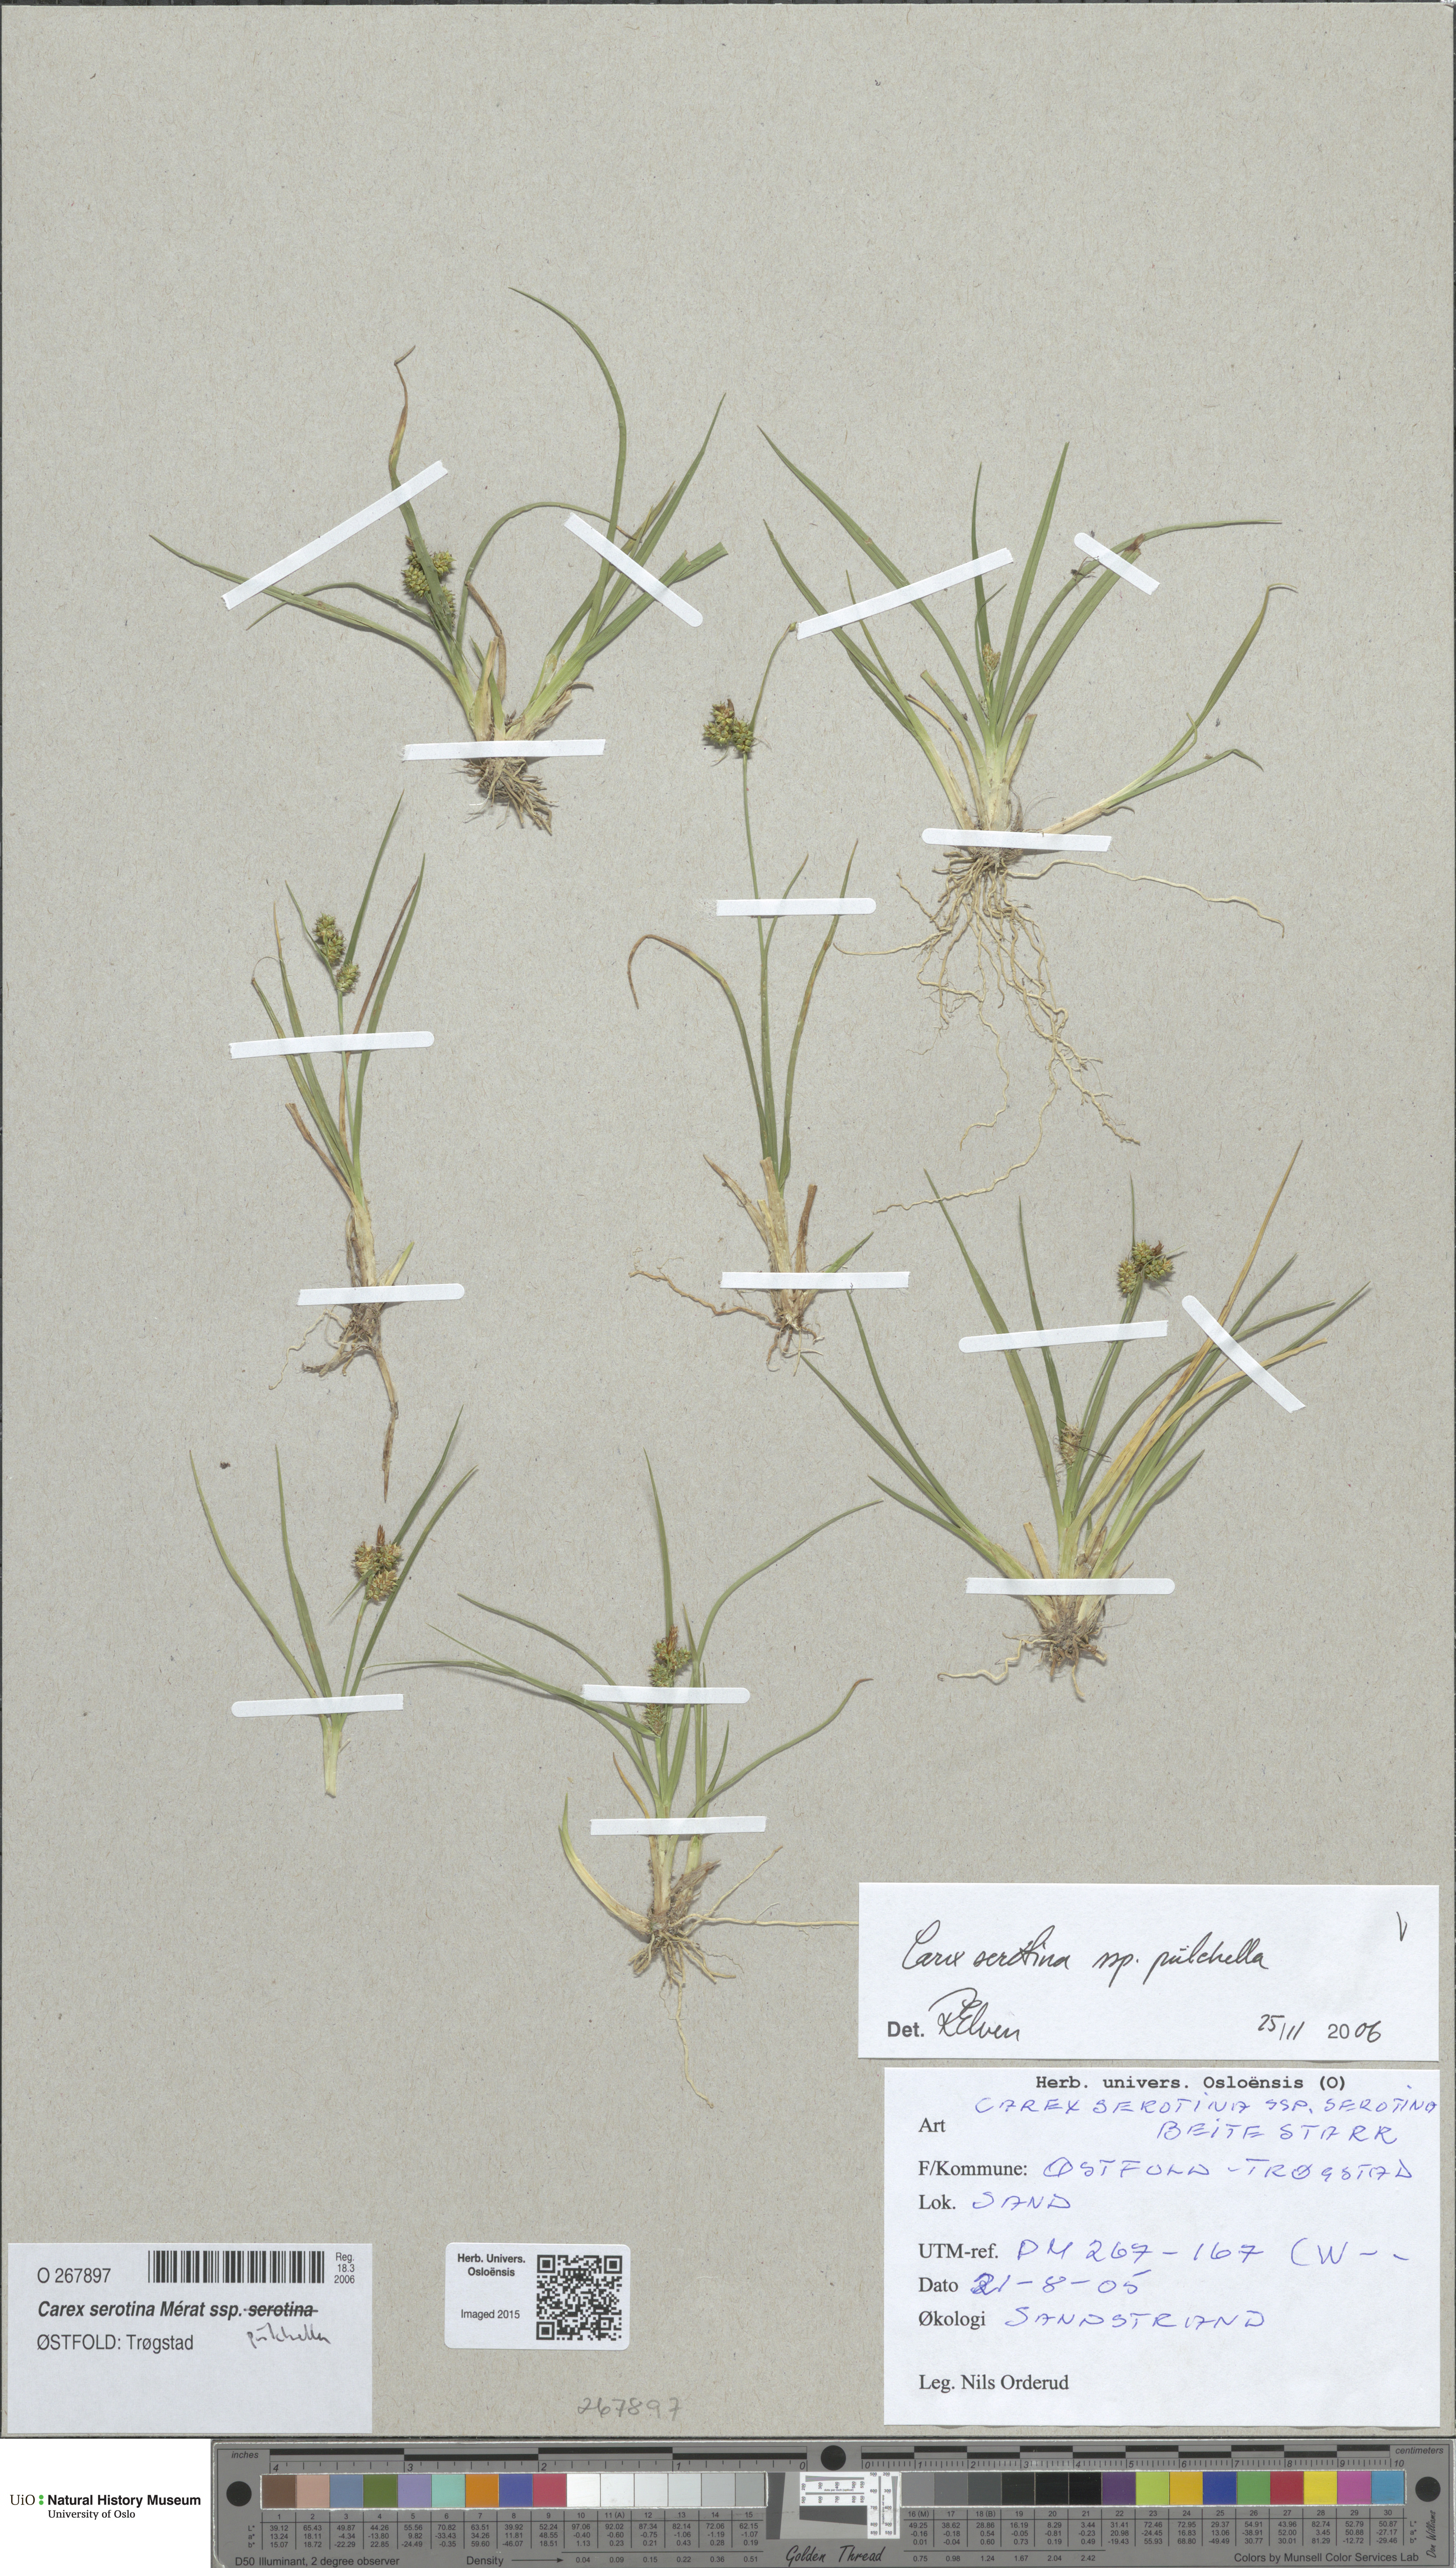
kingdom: Plantae
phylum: Tracheophyta
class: Liliopsida
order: Poales
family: Cyperaceae
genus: Carex
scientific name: Carex oederi
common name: Common & small-fruited yellow-sedge
